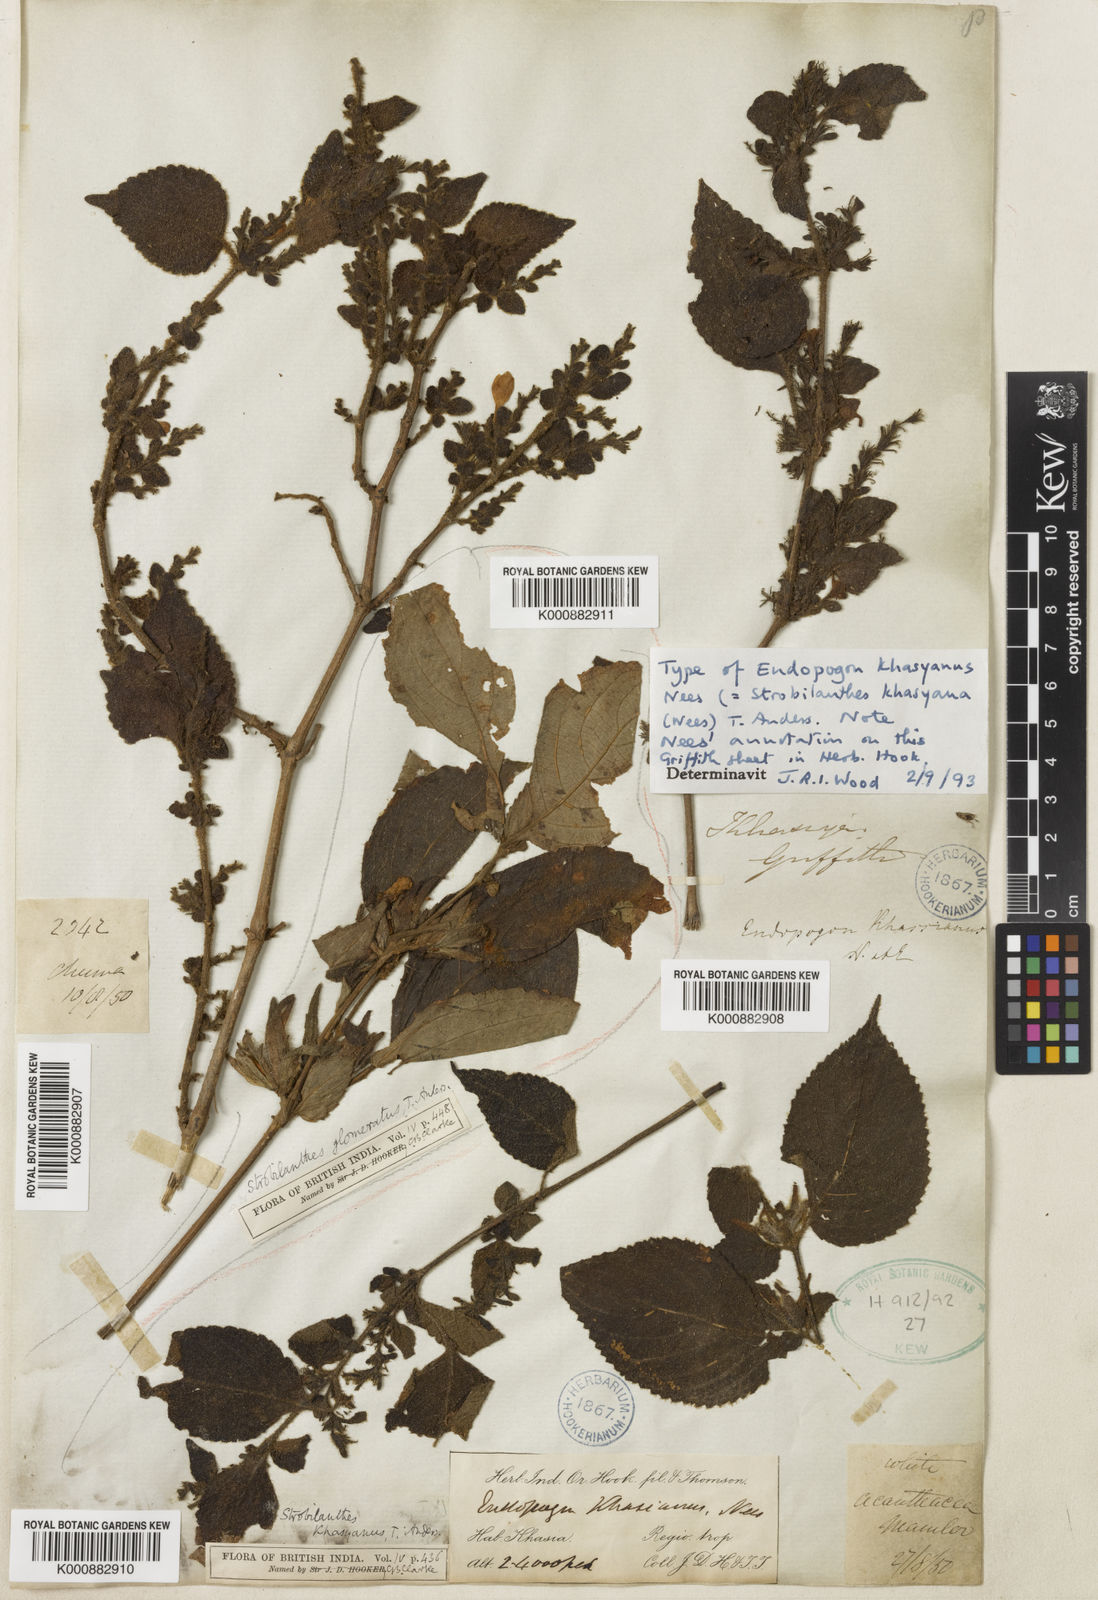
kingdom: Plantae
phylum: Tracheophyta
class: Magnoliopsida
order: Lamiales
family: Acanthaceae
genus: Strobilanthes
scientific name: Strobilanthes khasyana
